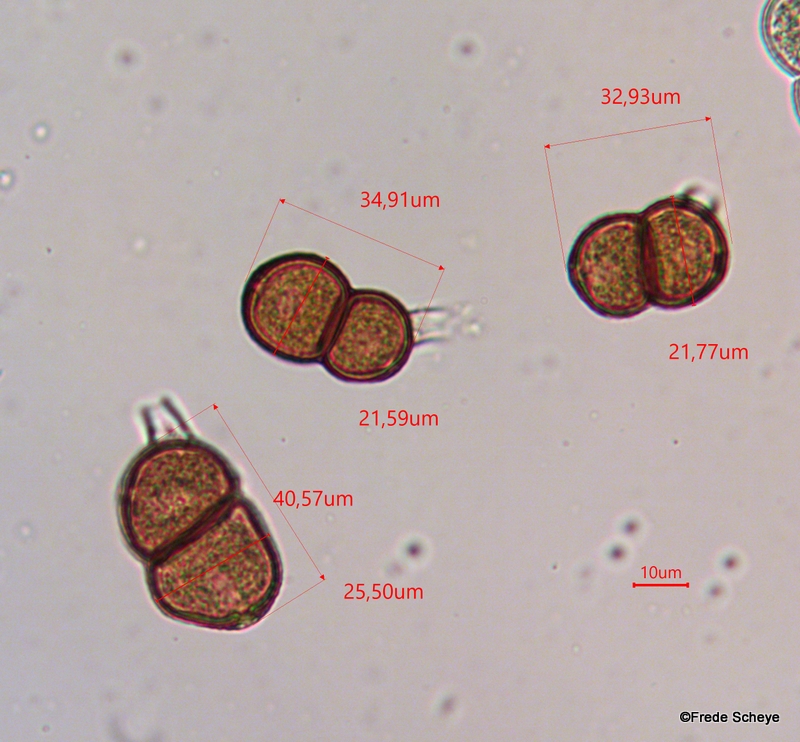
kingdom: Fungi
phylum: Basidiomycota
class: Pucciniomycetes
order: Pucciniales
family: Pucciniaceae
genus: Puccinia
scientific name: Puccinia epilobii
